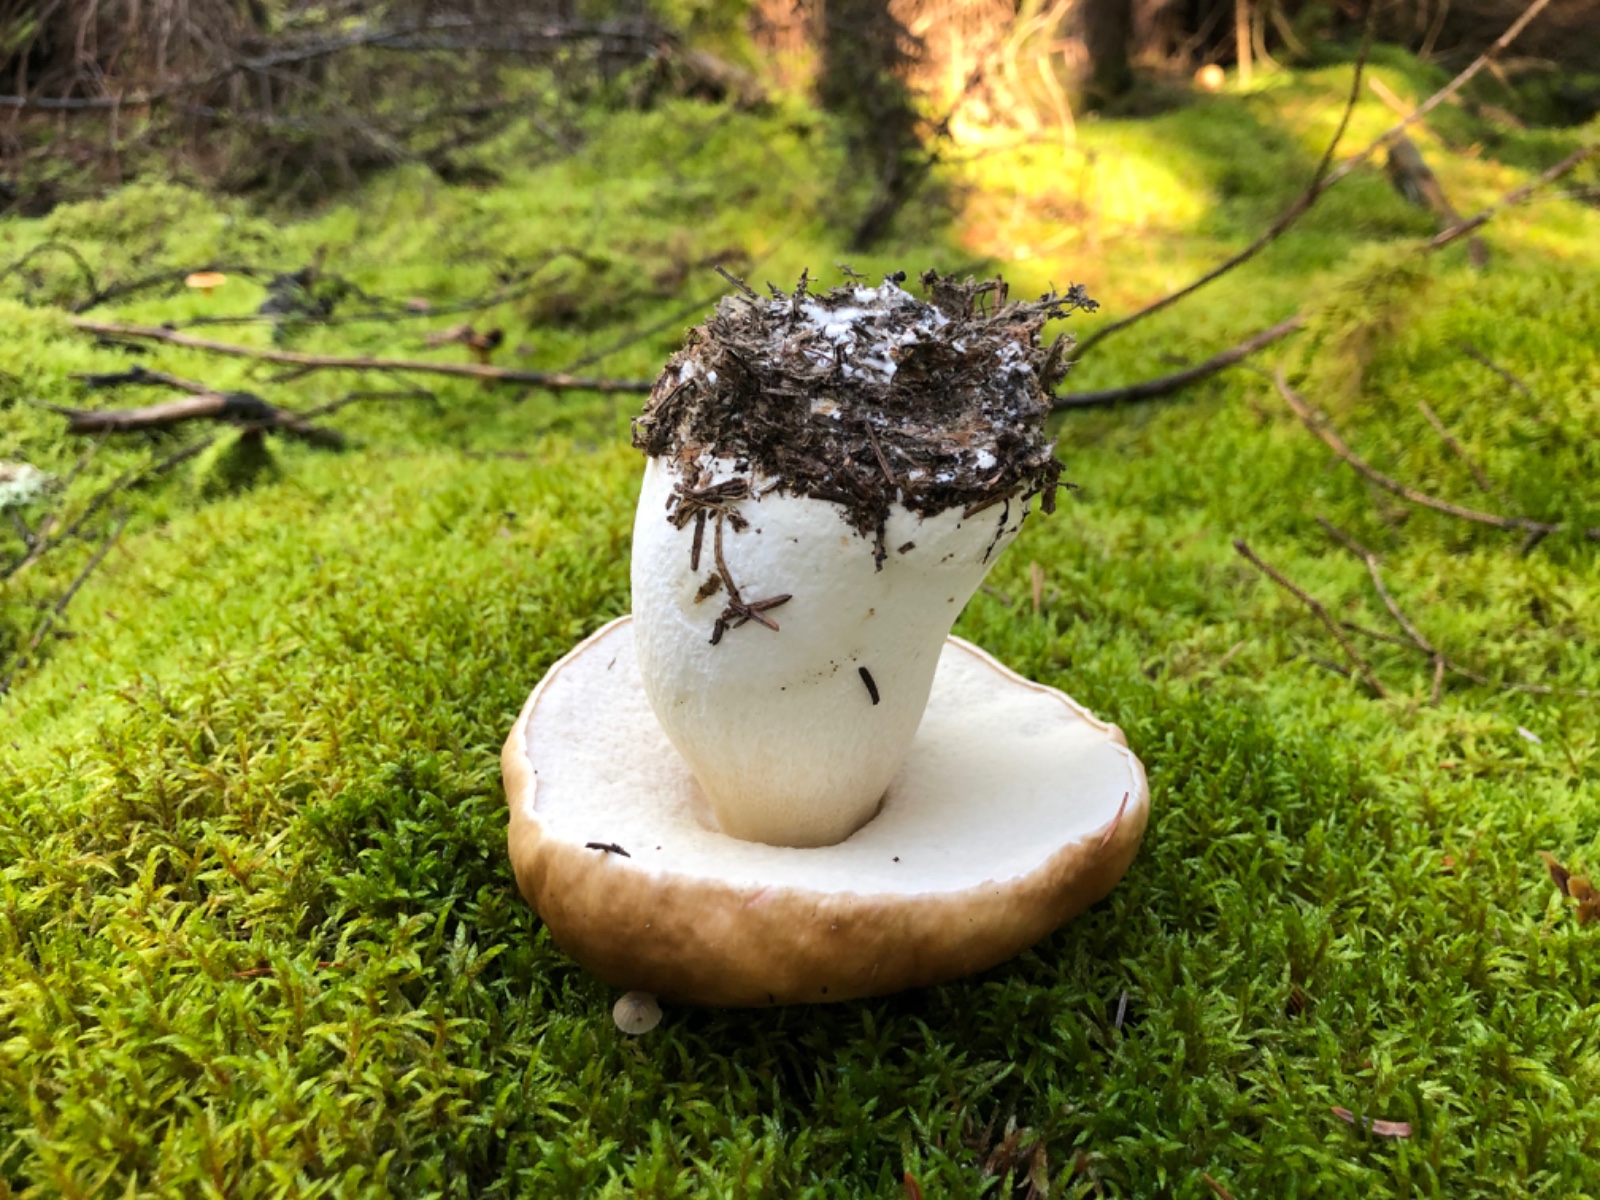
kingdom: Fungi
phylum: Basidiomycota
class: Agaricomycetes
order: Boletales
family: Boletaceae
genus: Boletus
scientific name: Boletus edulis
